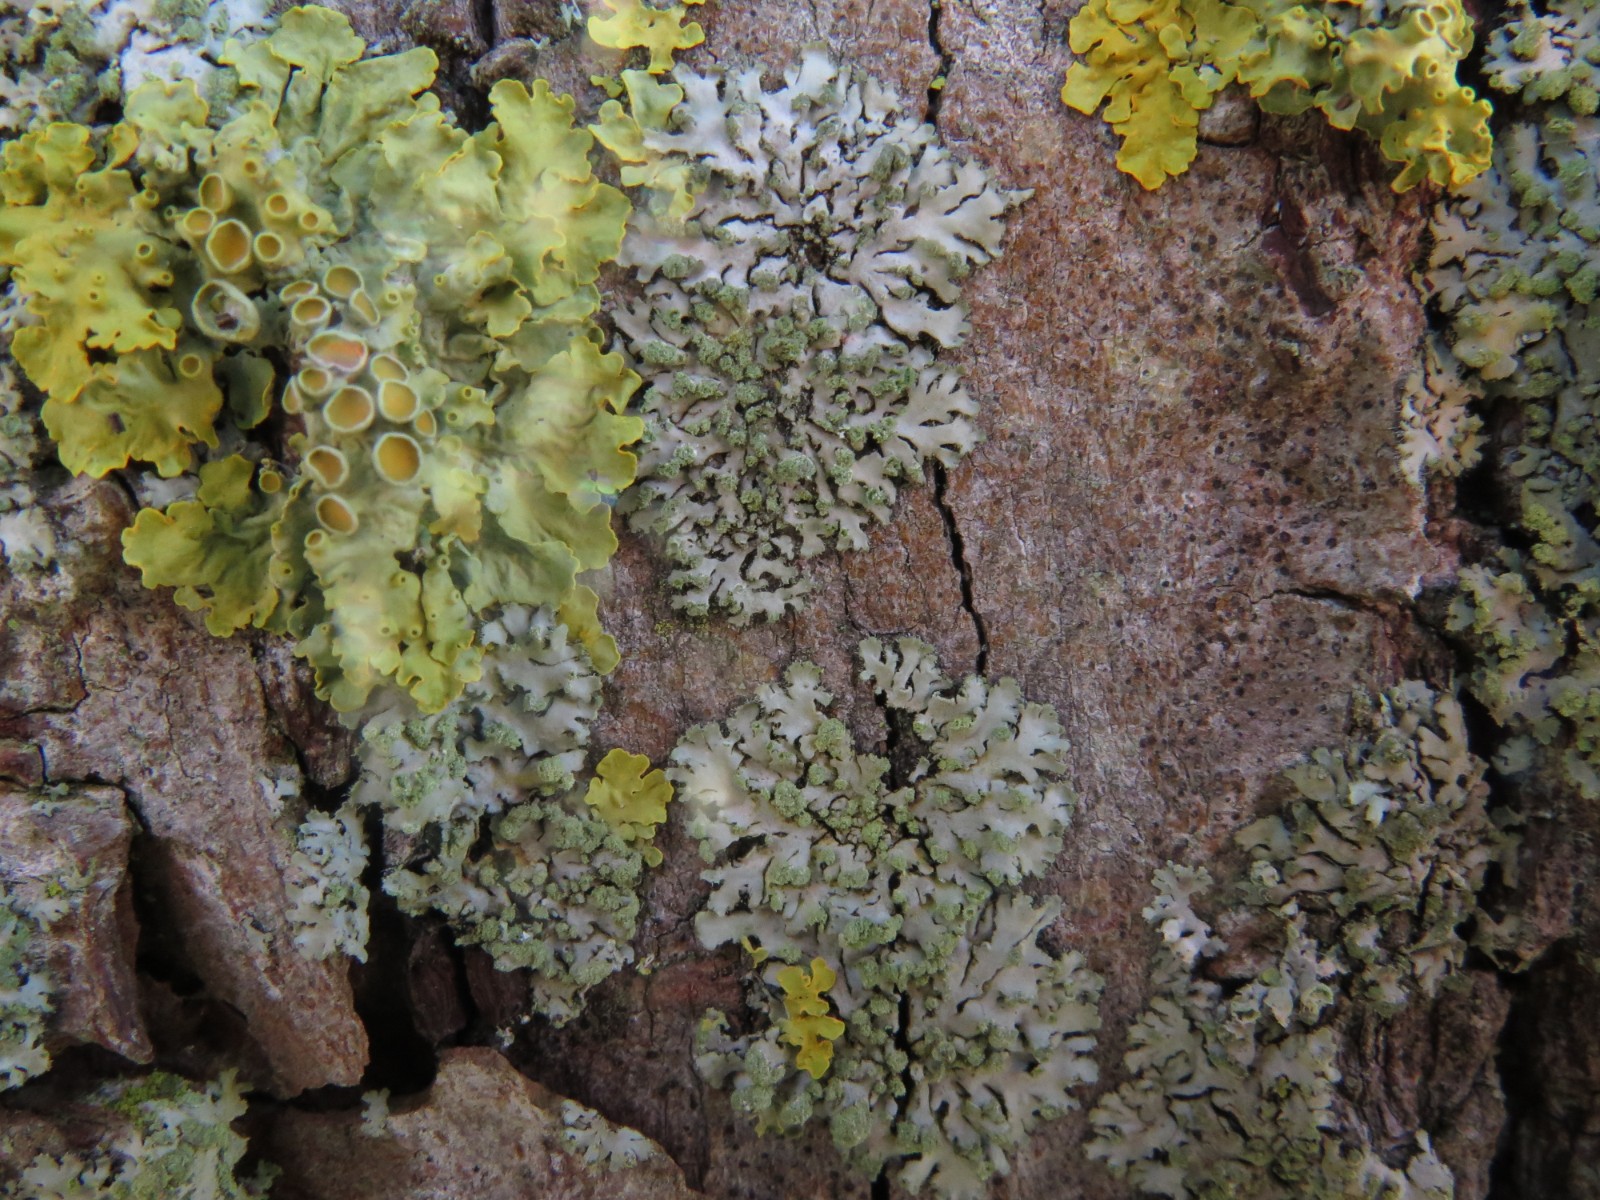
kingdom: Fungi
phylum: Ascomycota
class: Lecanoromycetes
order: Teloschistales
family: Teloschistaceae
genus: Xanthoria
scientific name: Xanthoria parietina
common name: almindelig væggelav
